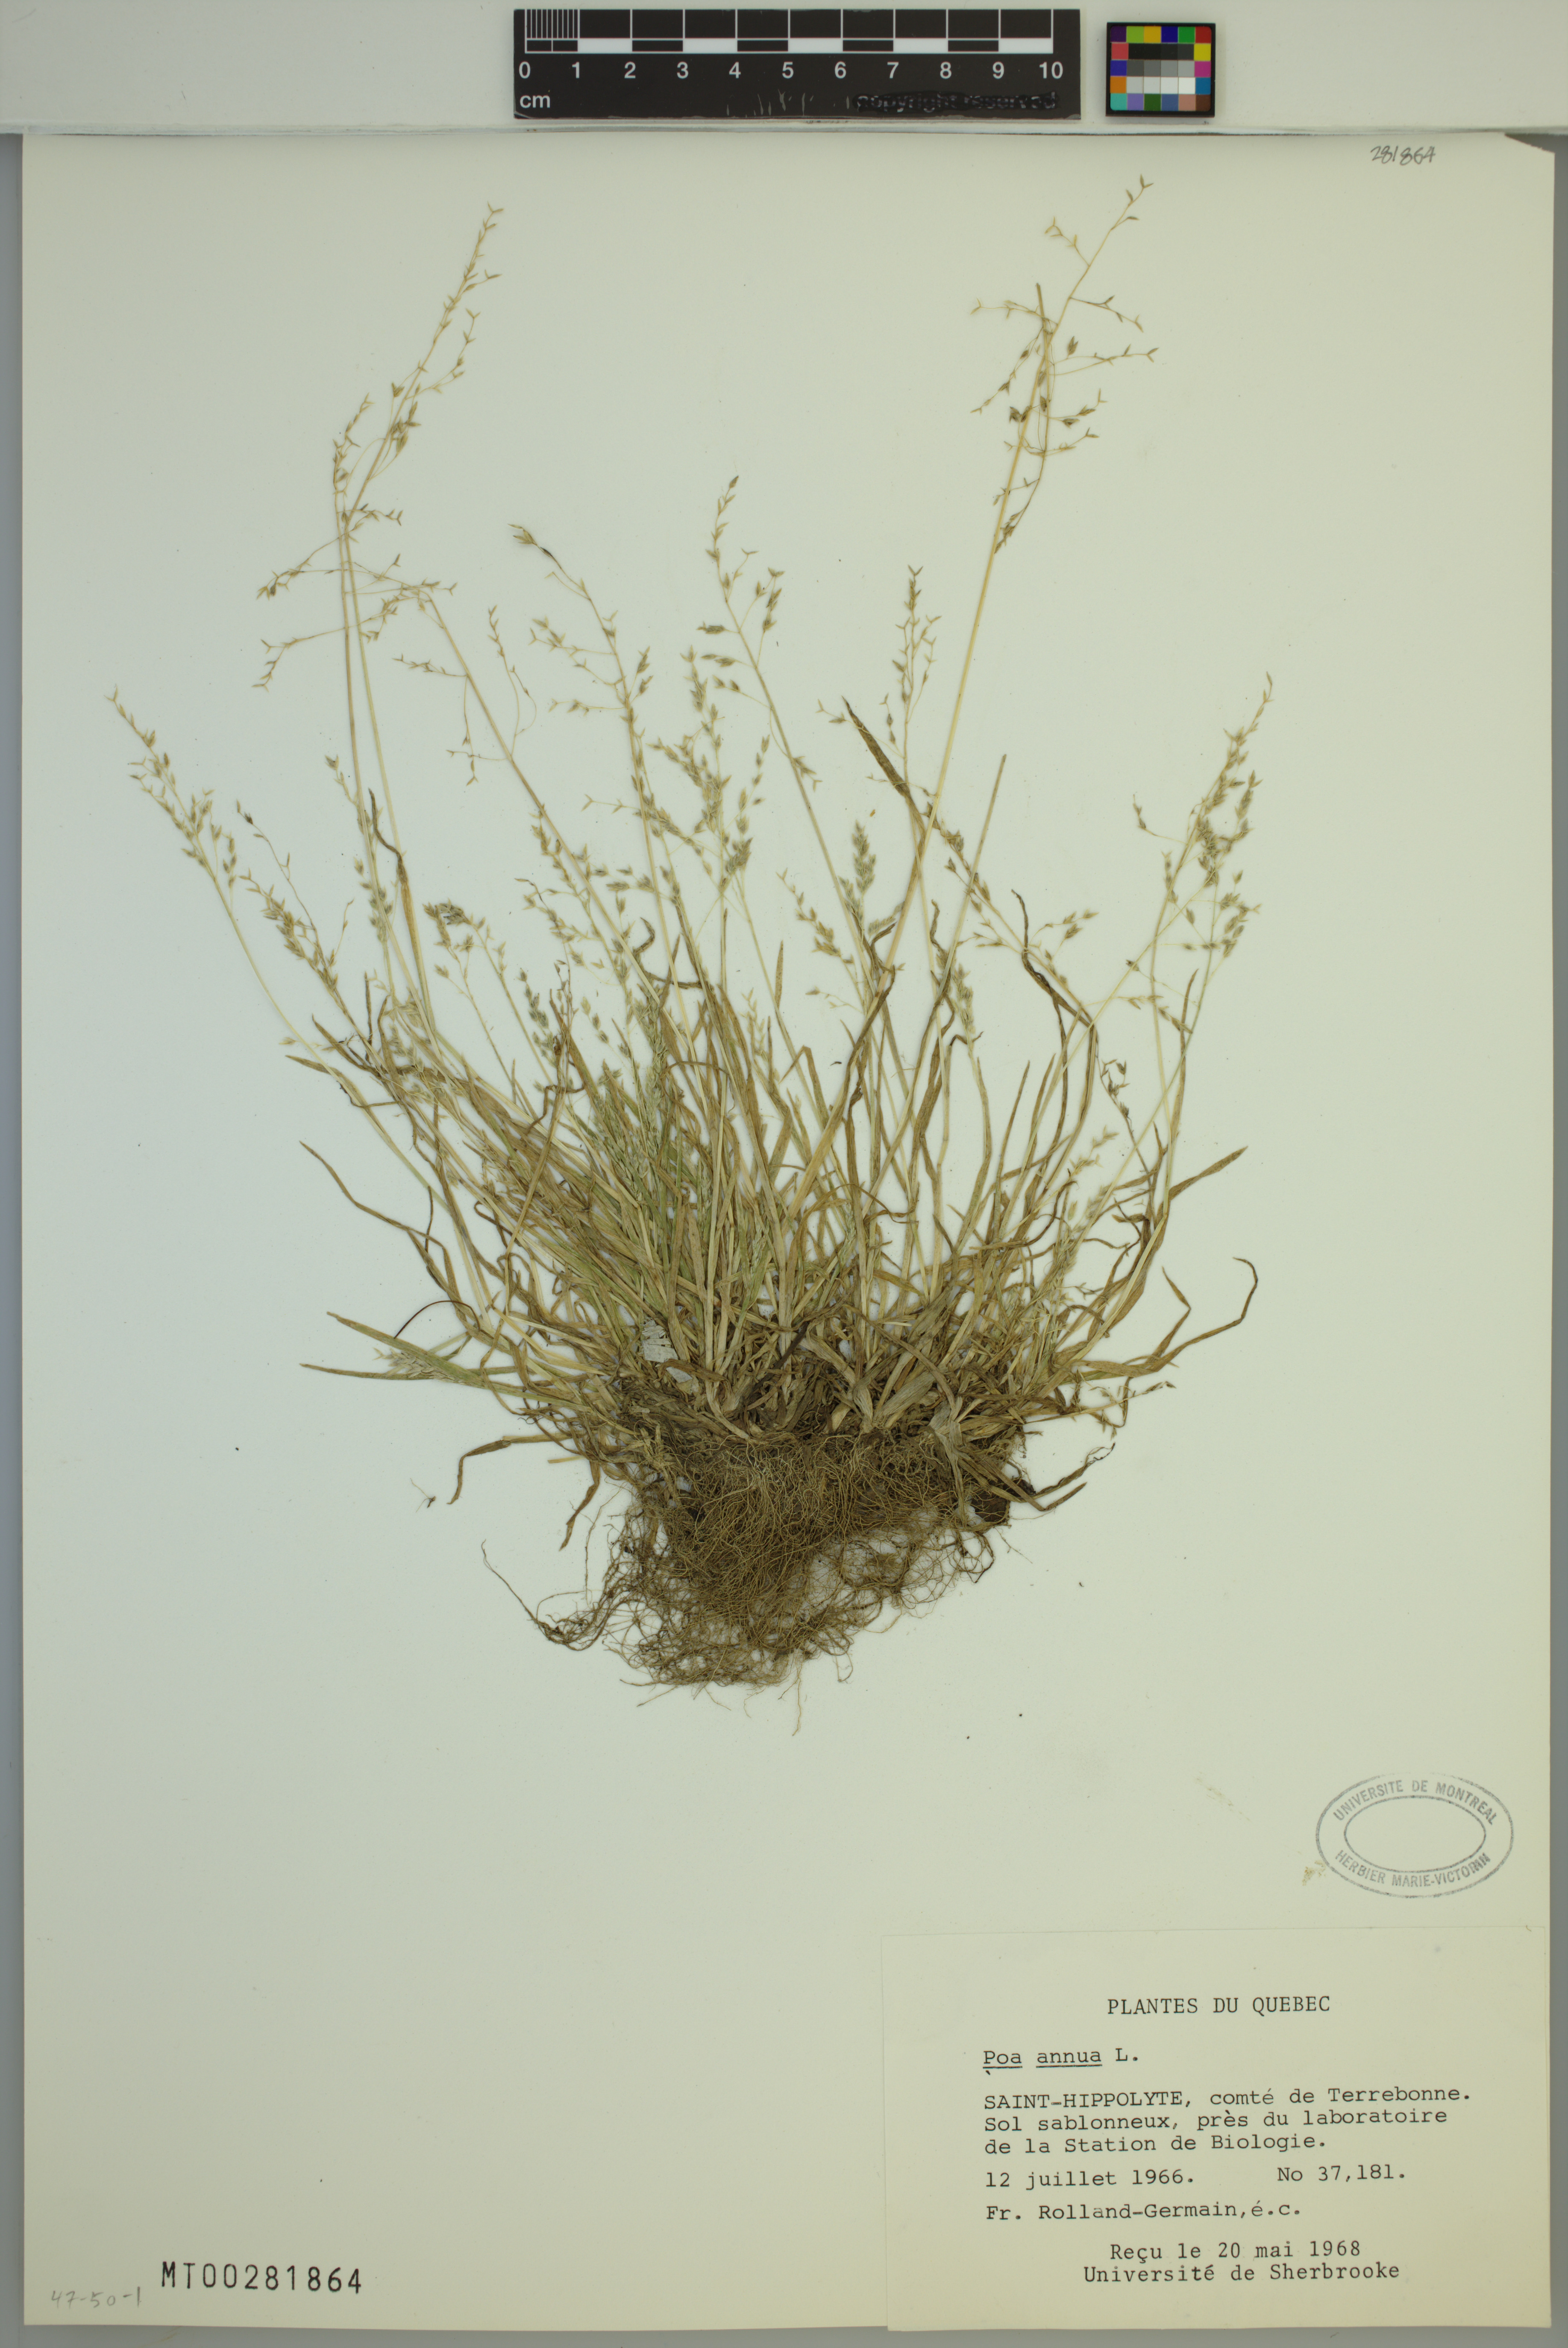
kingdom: Plantae
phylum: Tracheophyta
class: Liliopsida
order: Poales
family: Poaceae
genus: Poa
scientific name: Poa annua
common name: Annual bluegrass
